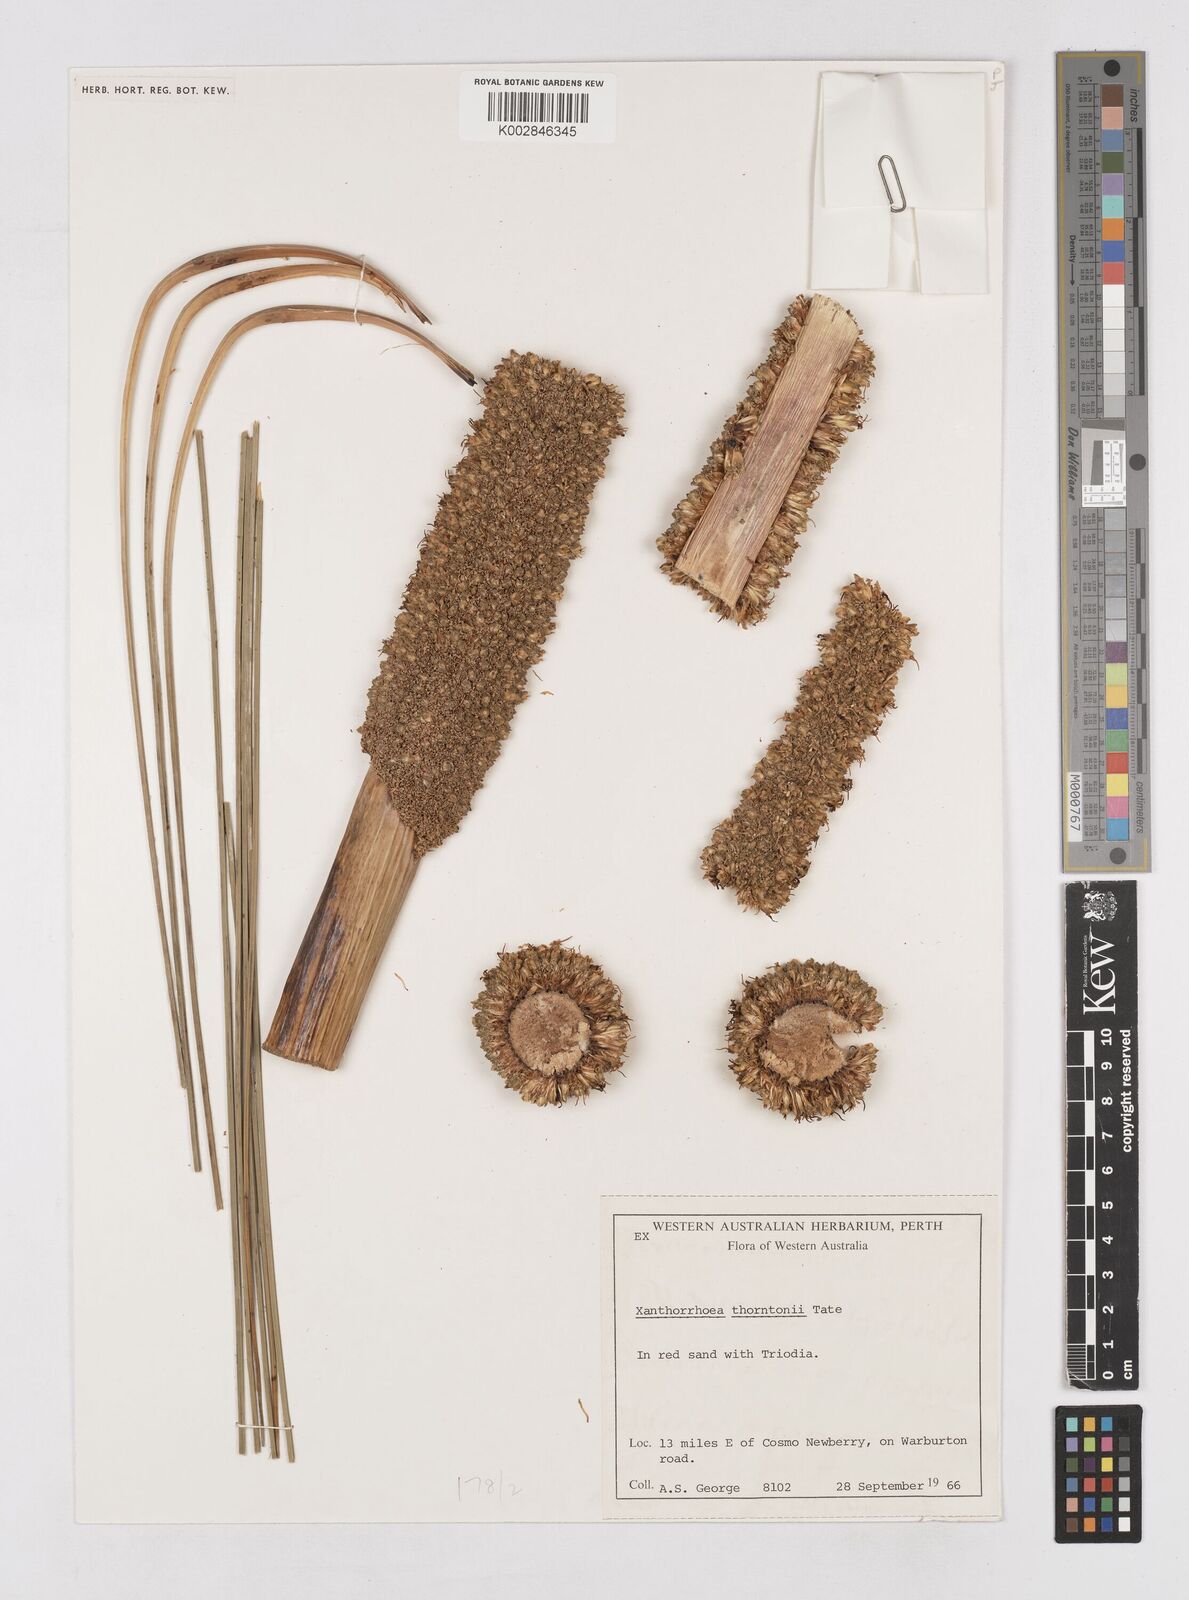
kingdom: Plantae
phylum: Tracheophyta
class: Liliopsida
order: Asparagales
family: Asphodelaceae
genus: Xanthorrhoea
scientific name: Xanthorrhoea thorntonii
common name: Cundeelee grass-tree
